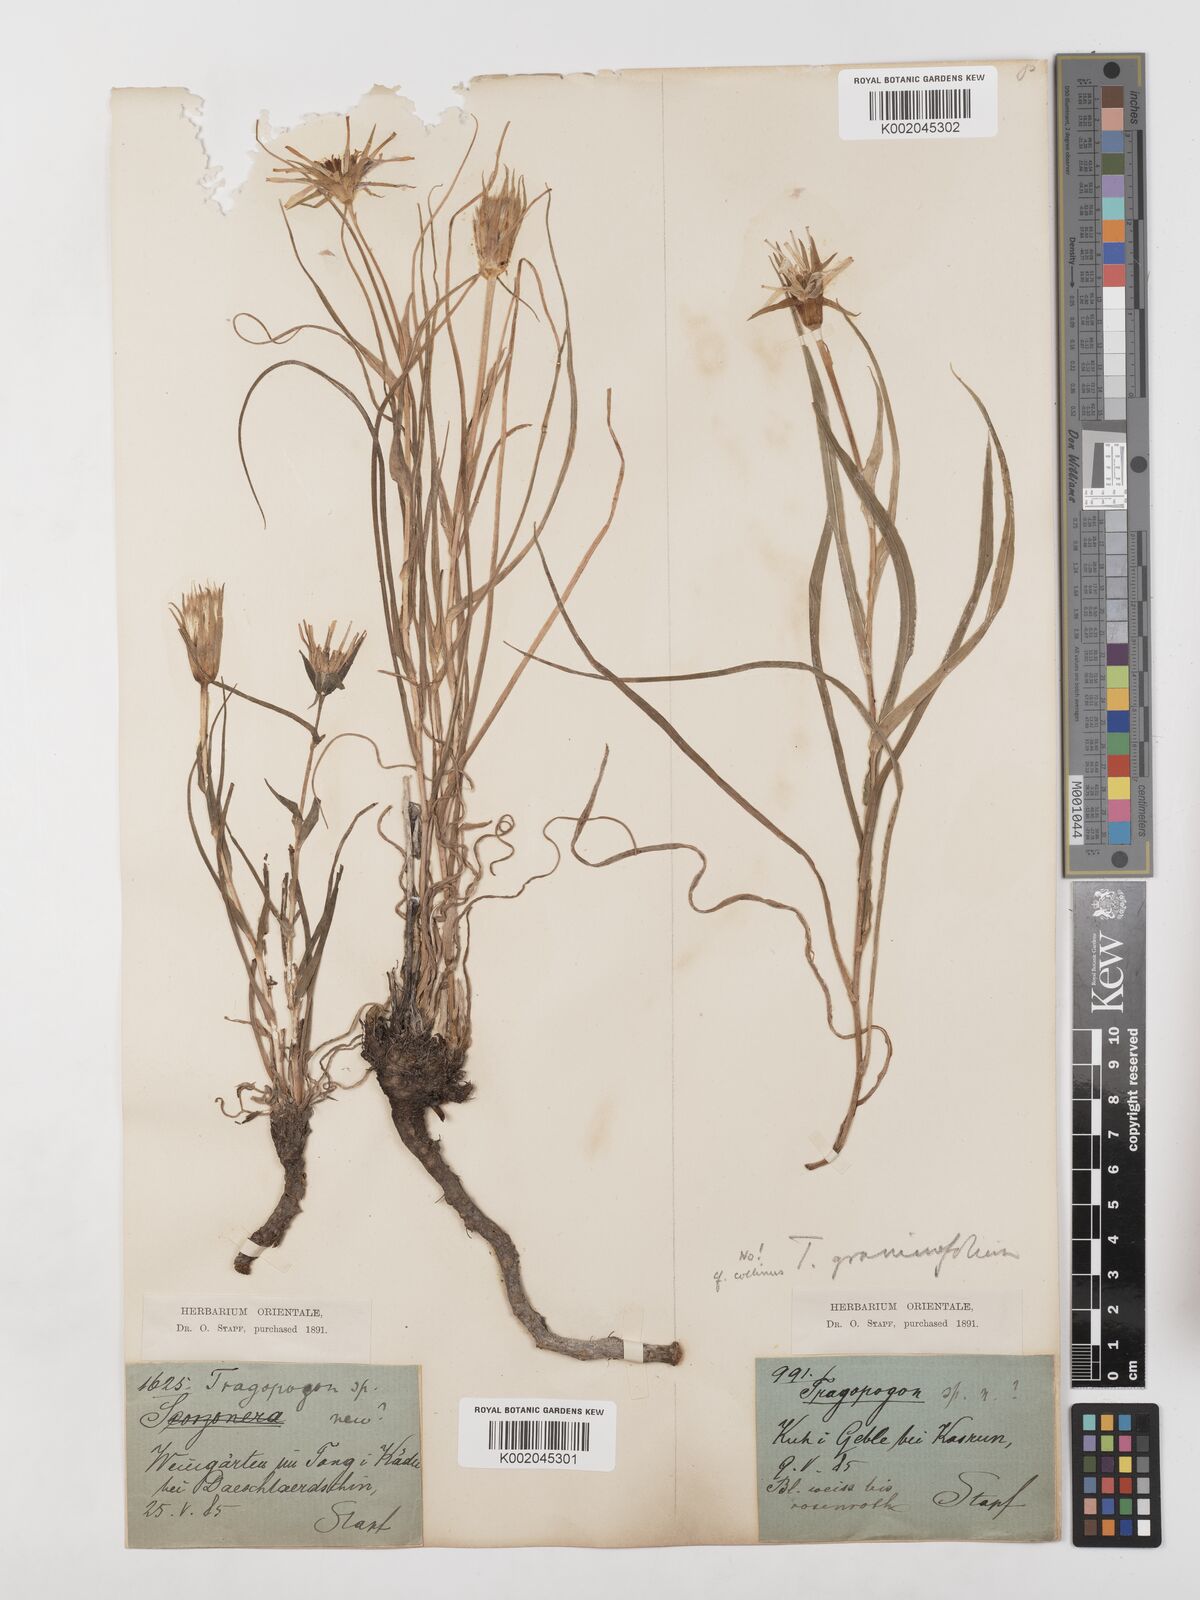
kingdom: Plantae
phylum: Tracheophyta
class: Magnoliopsida
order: Asterales
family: Asteraceae
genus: Tragopogon
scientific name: Tragopogon collinus
